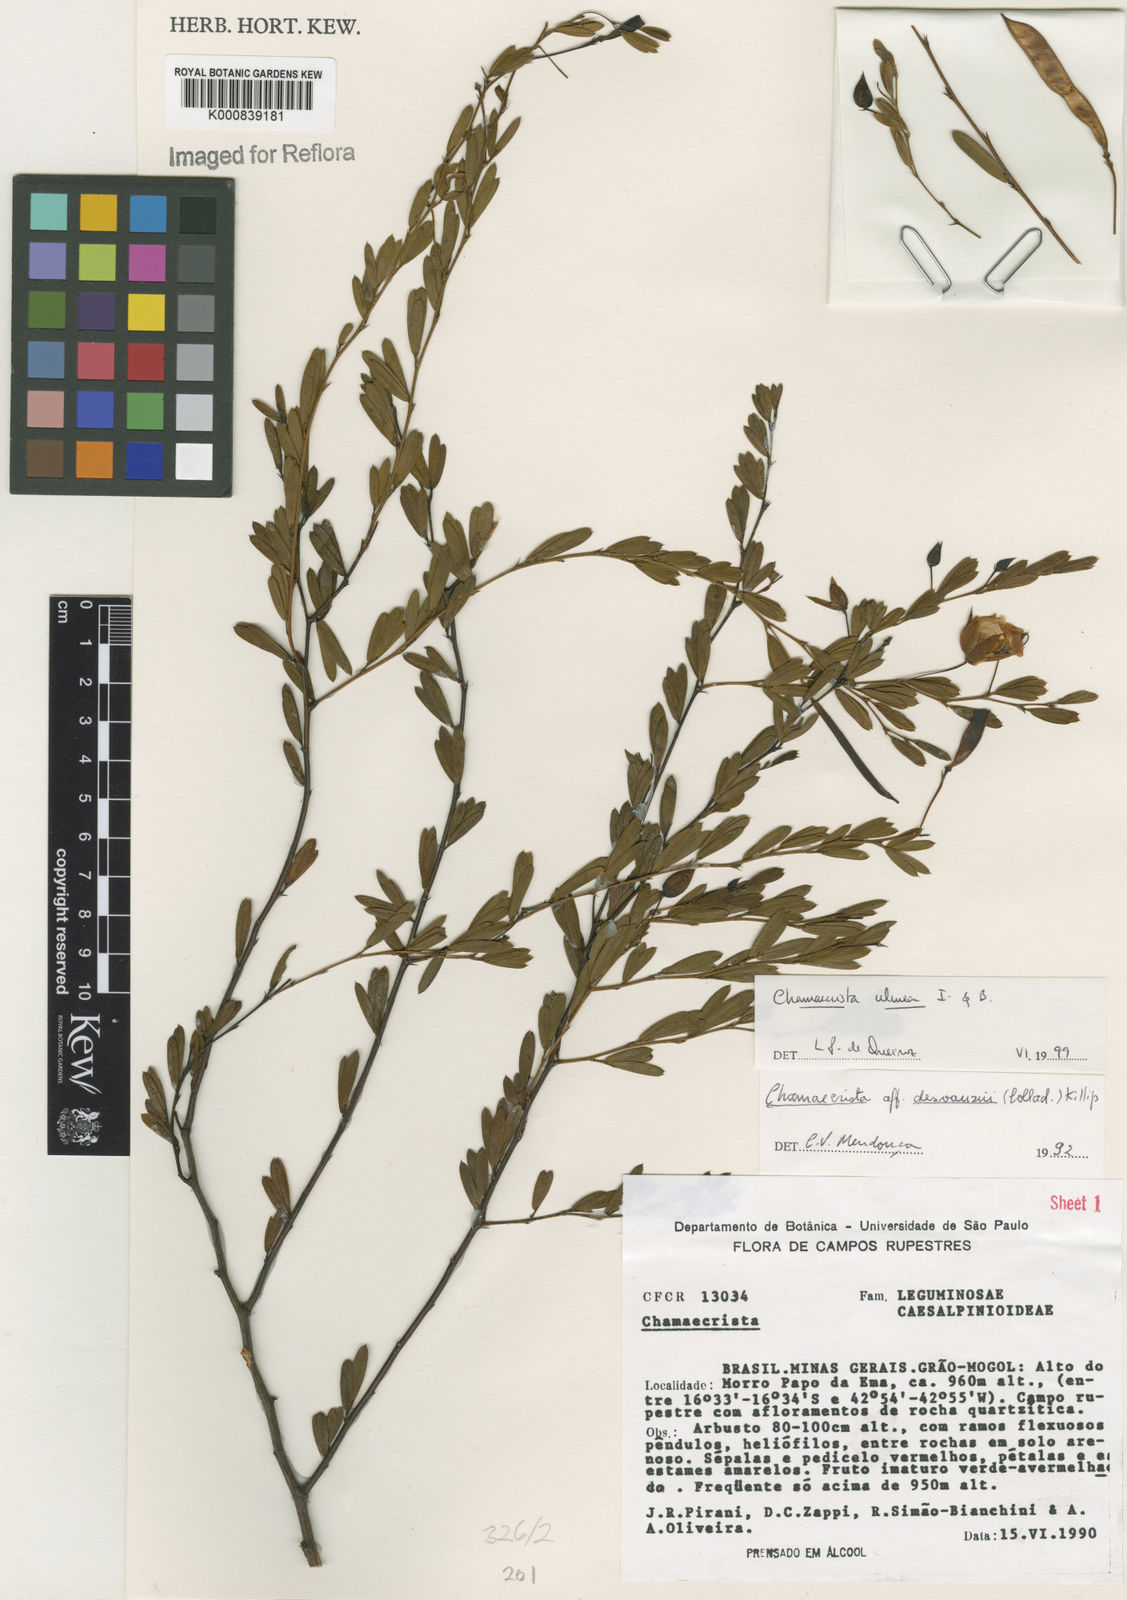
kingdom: Plantae
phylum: Tracheophyta
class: Magnoliopsida
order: Fabales
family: Fabaceae
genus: Chamaecrista
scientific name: Chamaecrista ulmea
